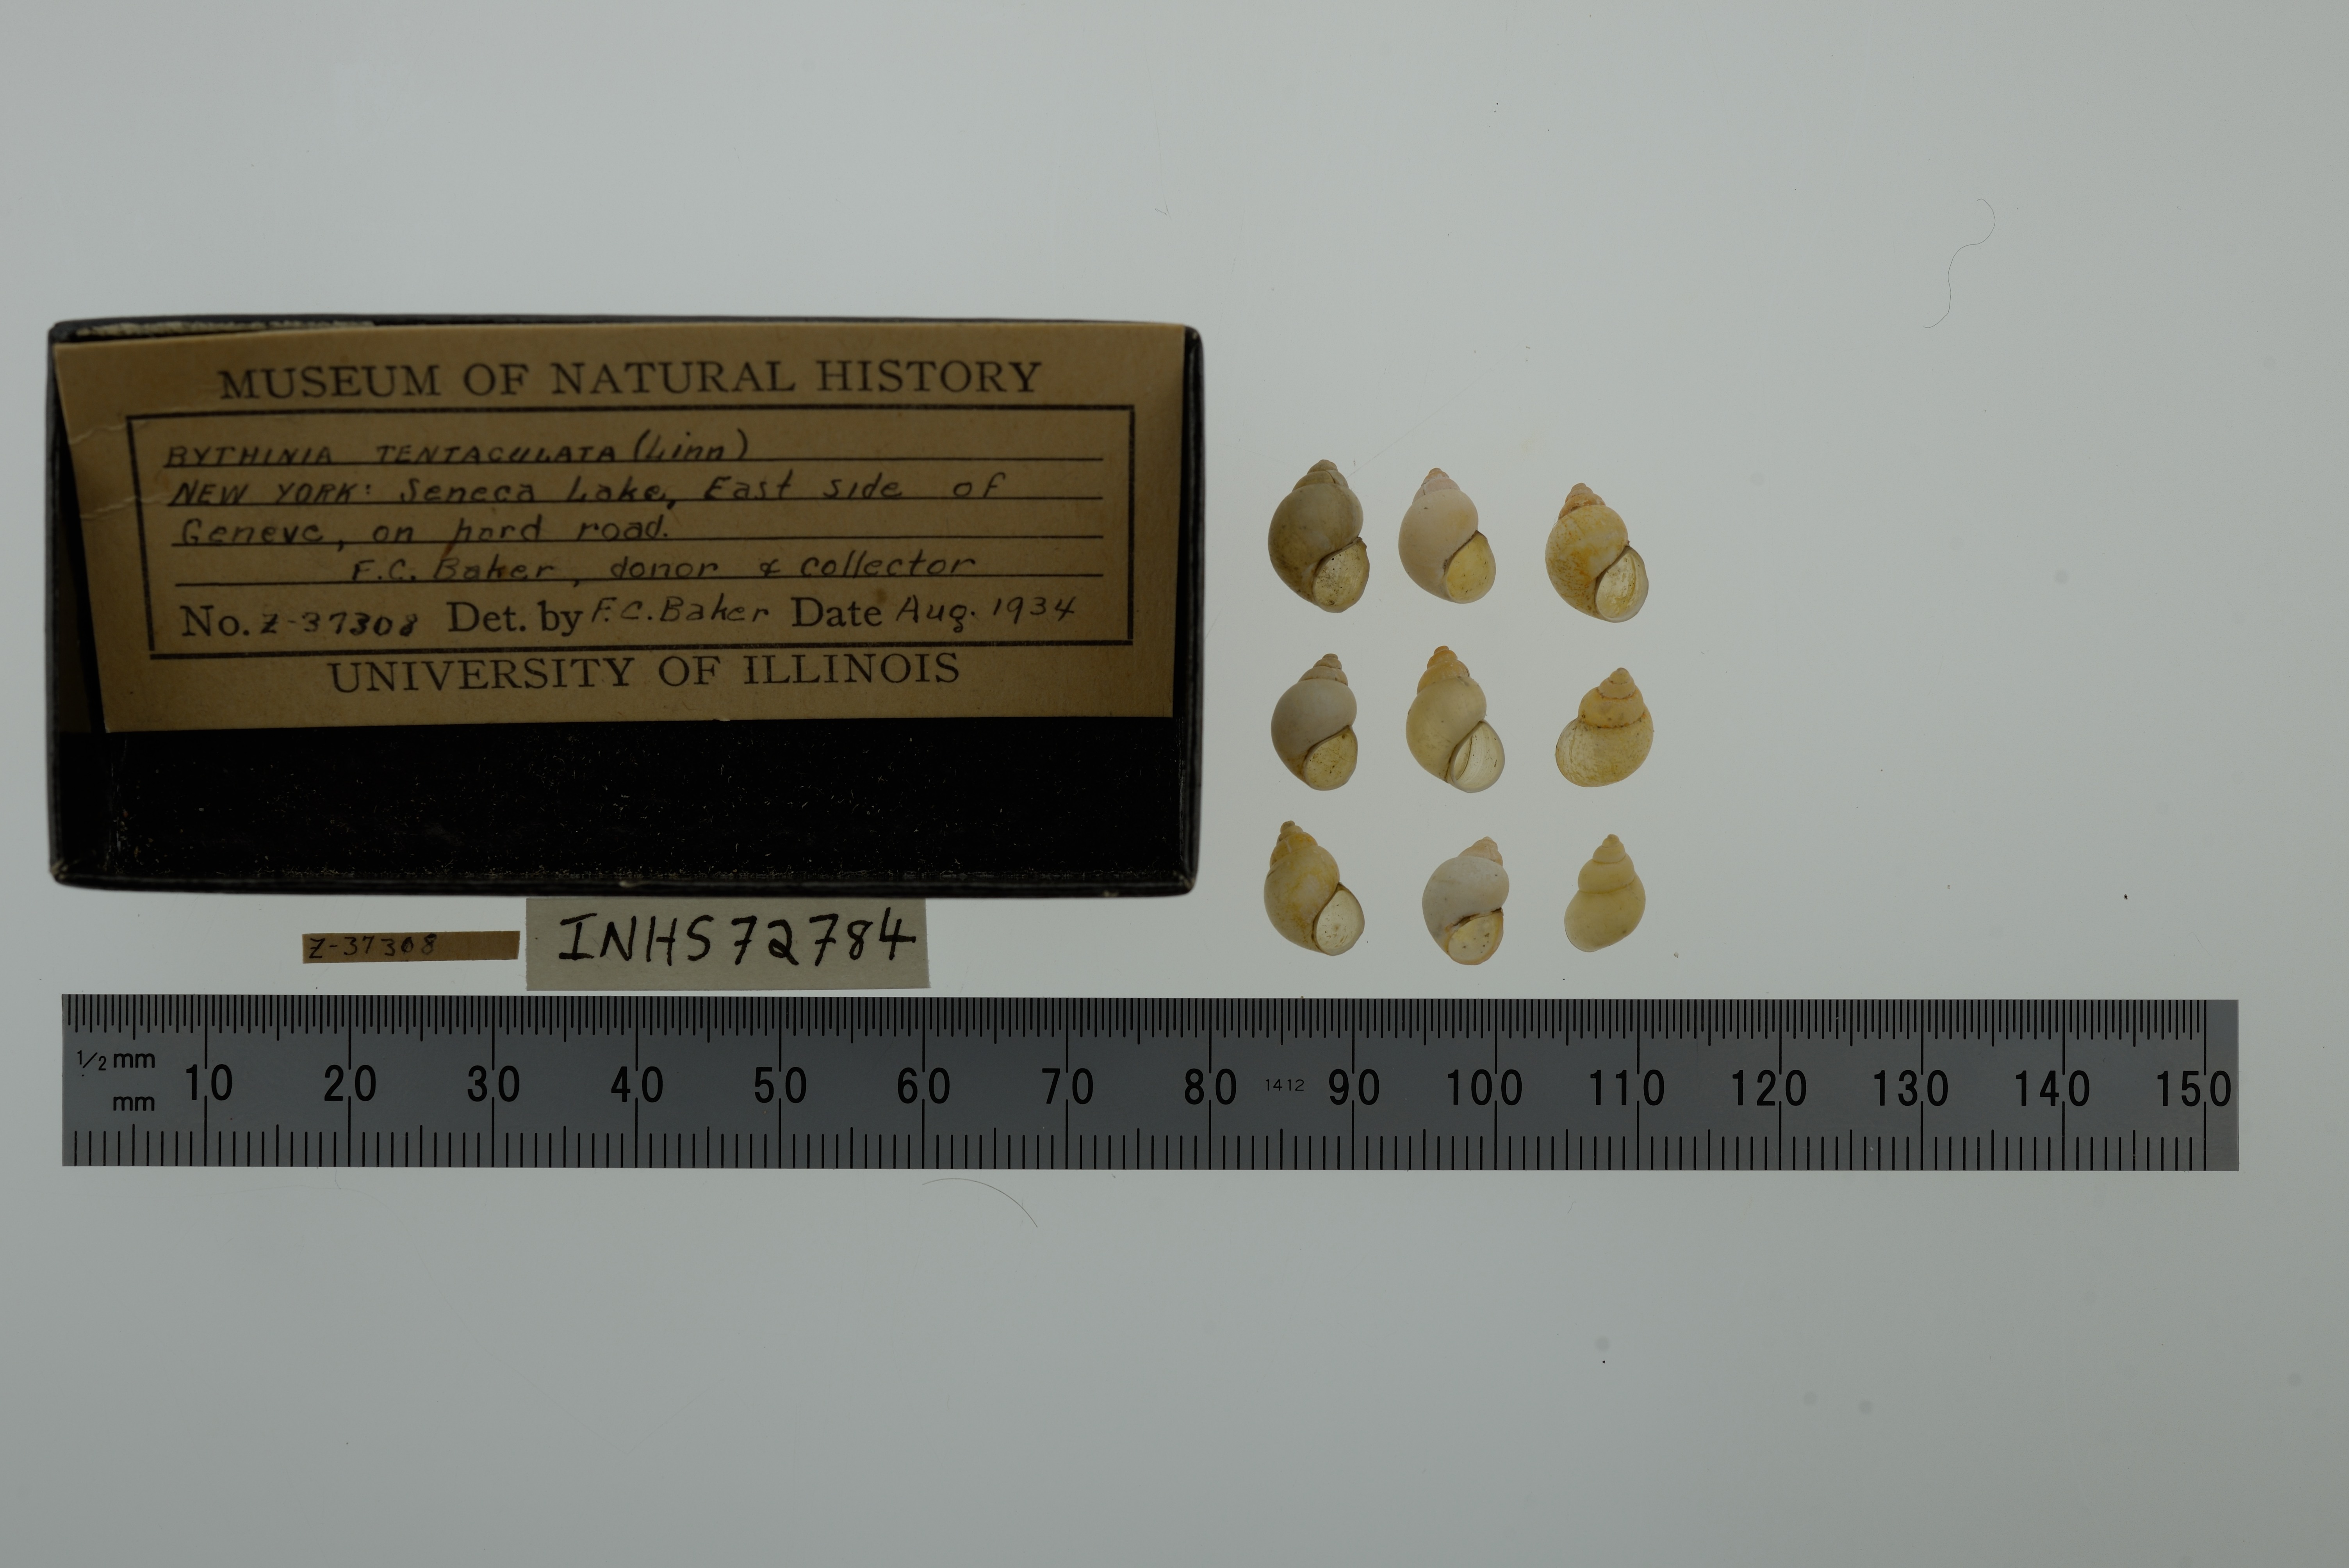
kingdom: Animalia
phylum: Mollusca
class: Gastropoda
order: Littorinimorpha
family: Bithyniidae
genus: Bithynia
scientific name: Bithynia tentaculata
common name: Common bithynia
